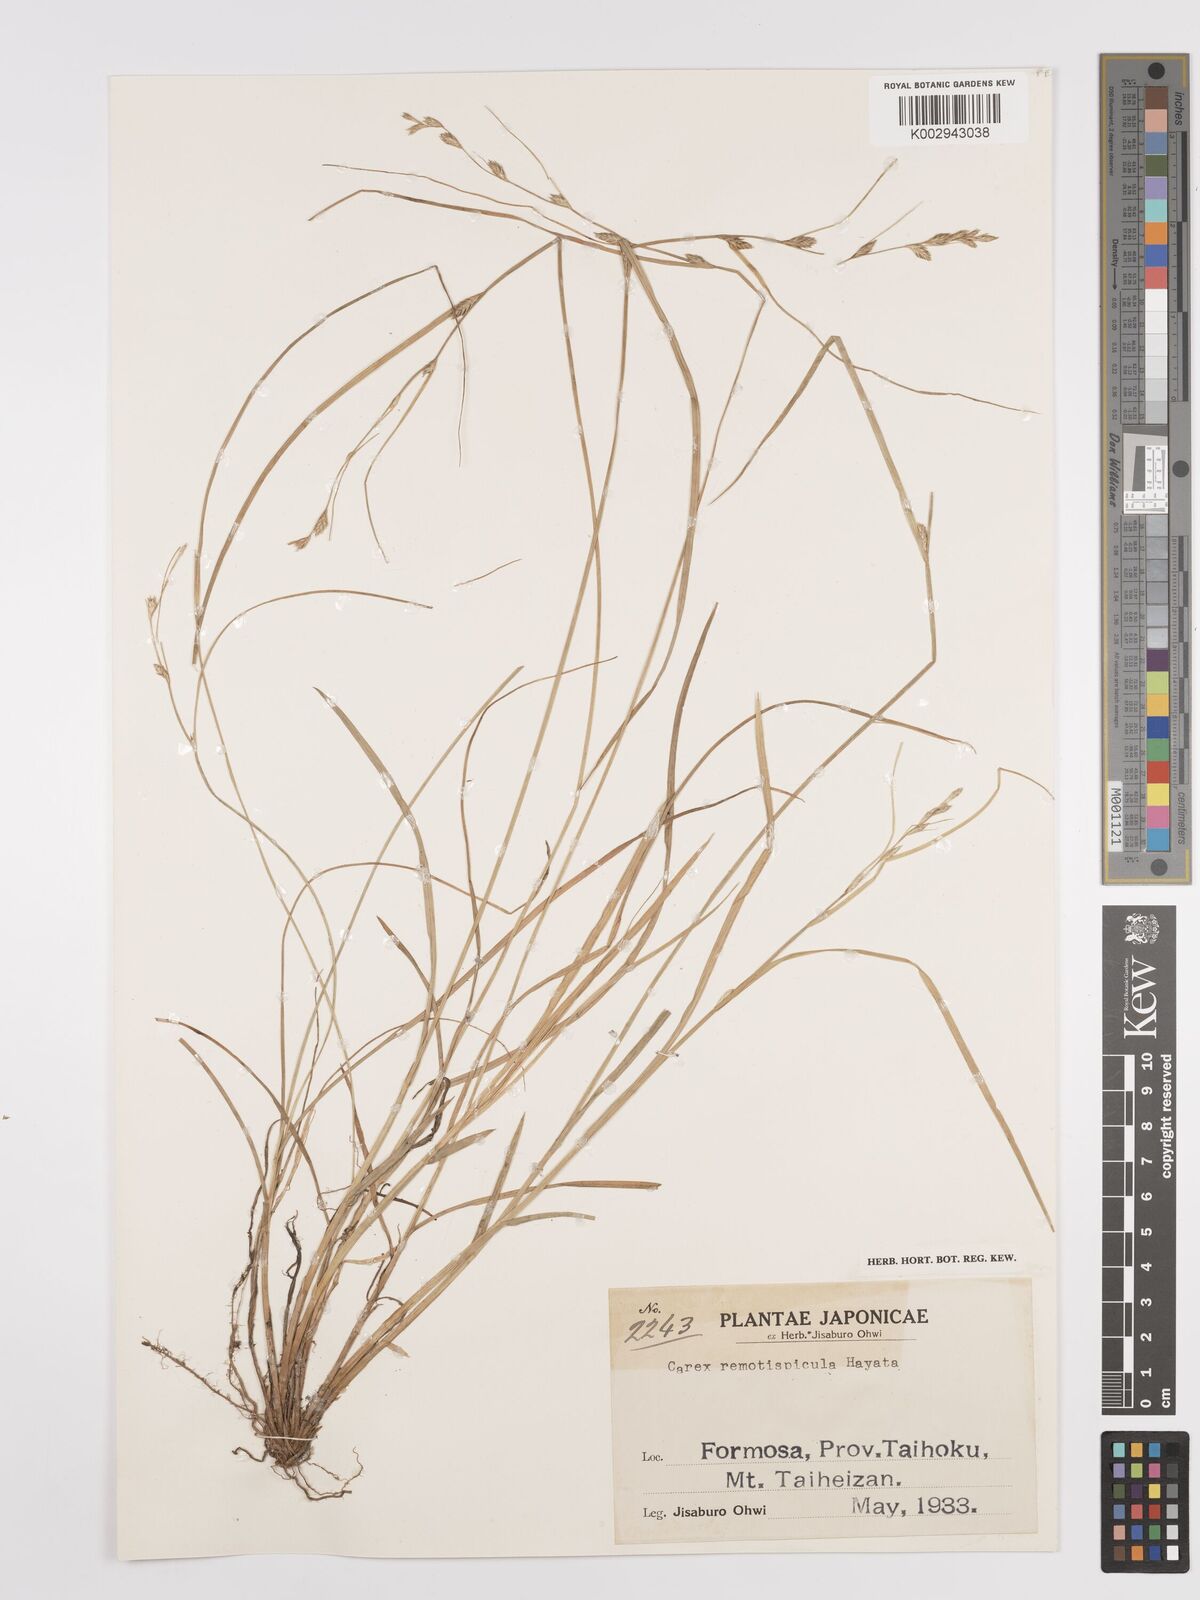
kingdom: Plantae
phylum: Tracheophyta
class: Liliopsida
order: Poales
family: Cyperaceae
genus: Carex
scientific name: Carex rochebrunei
